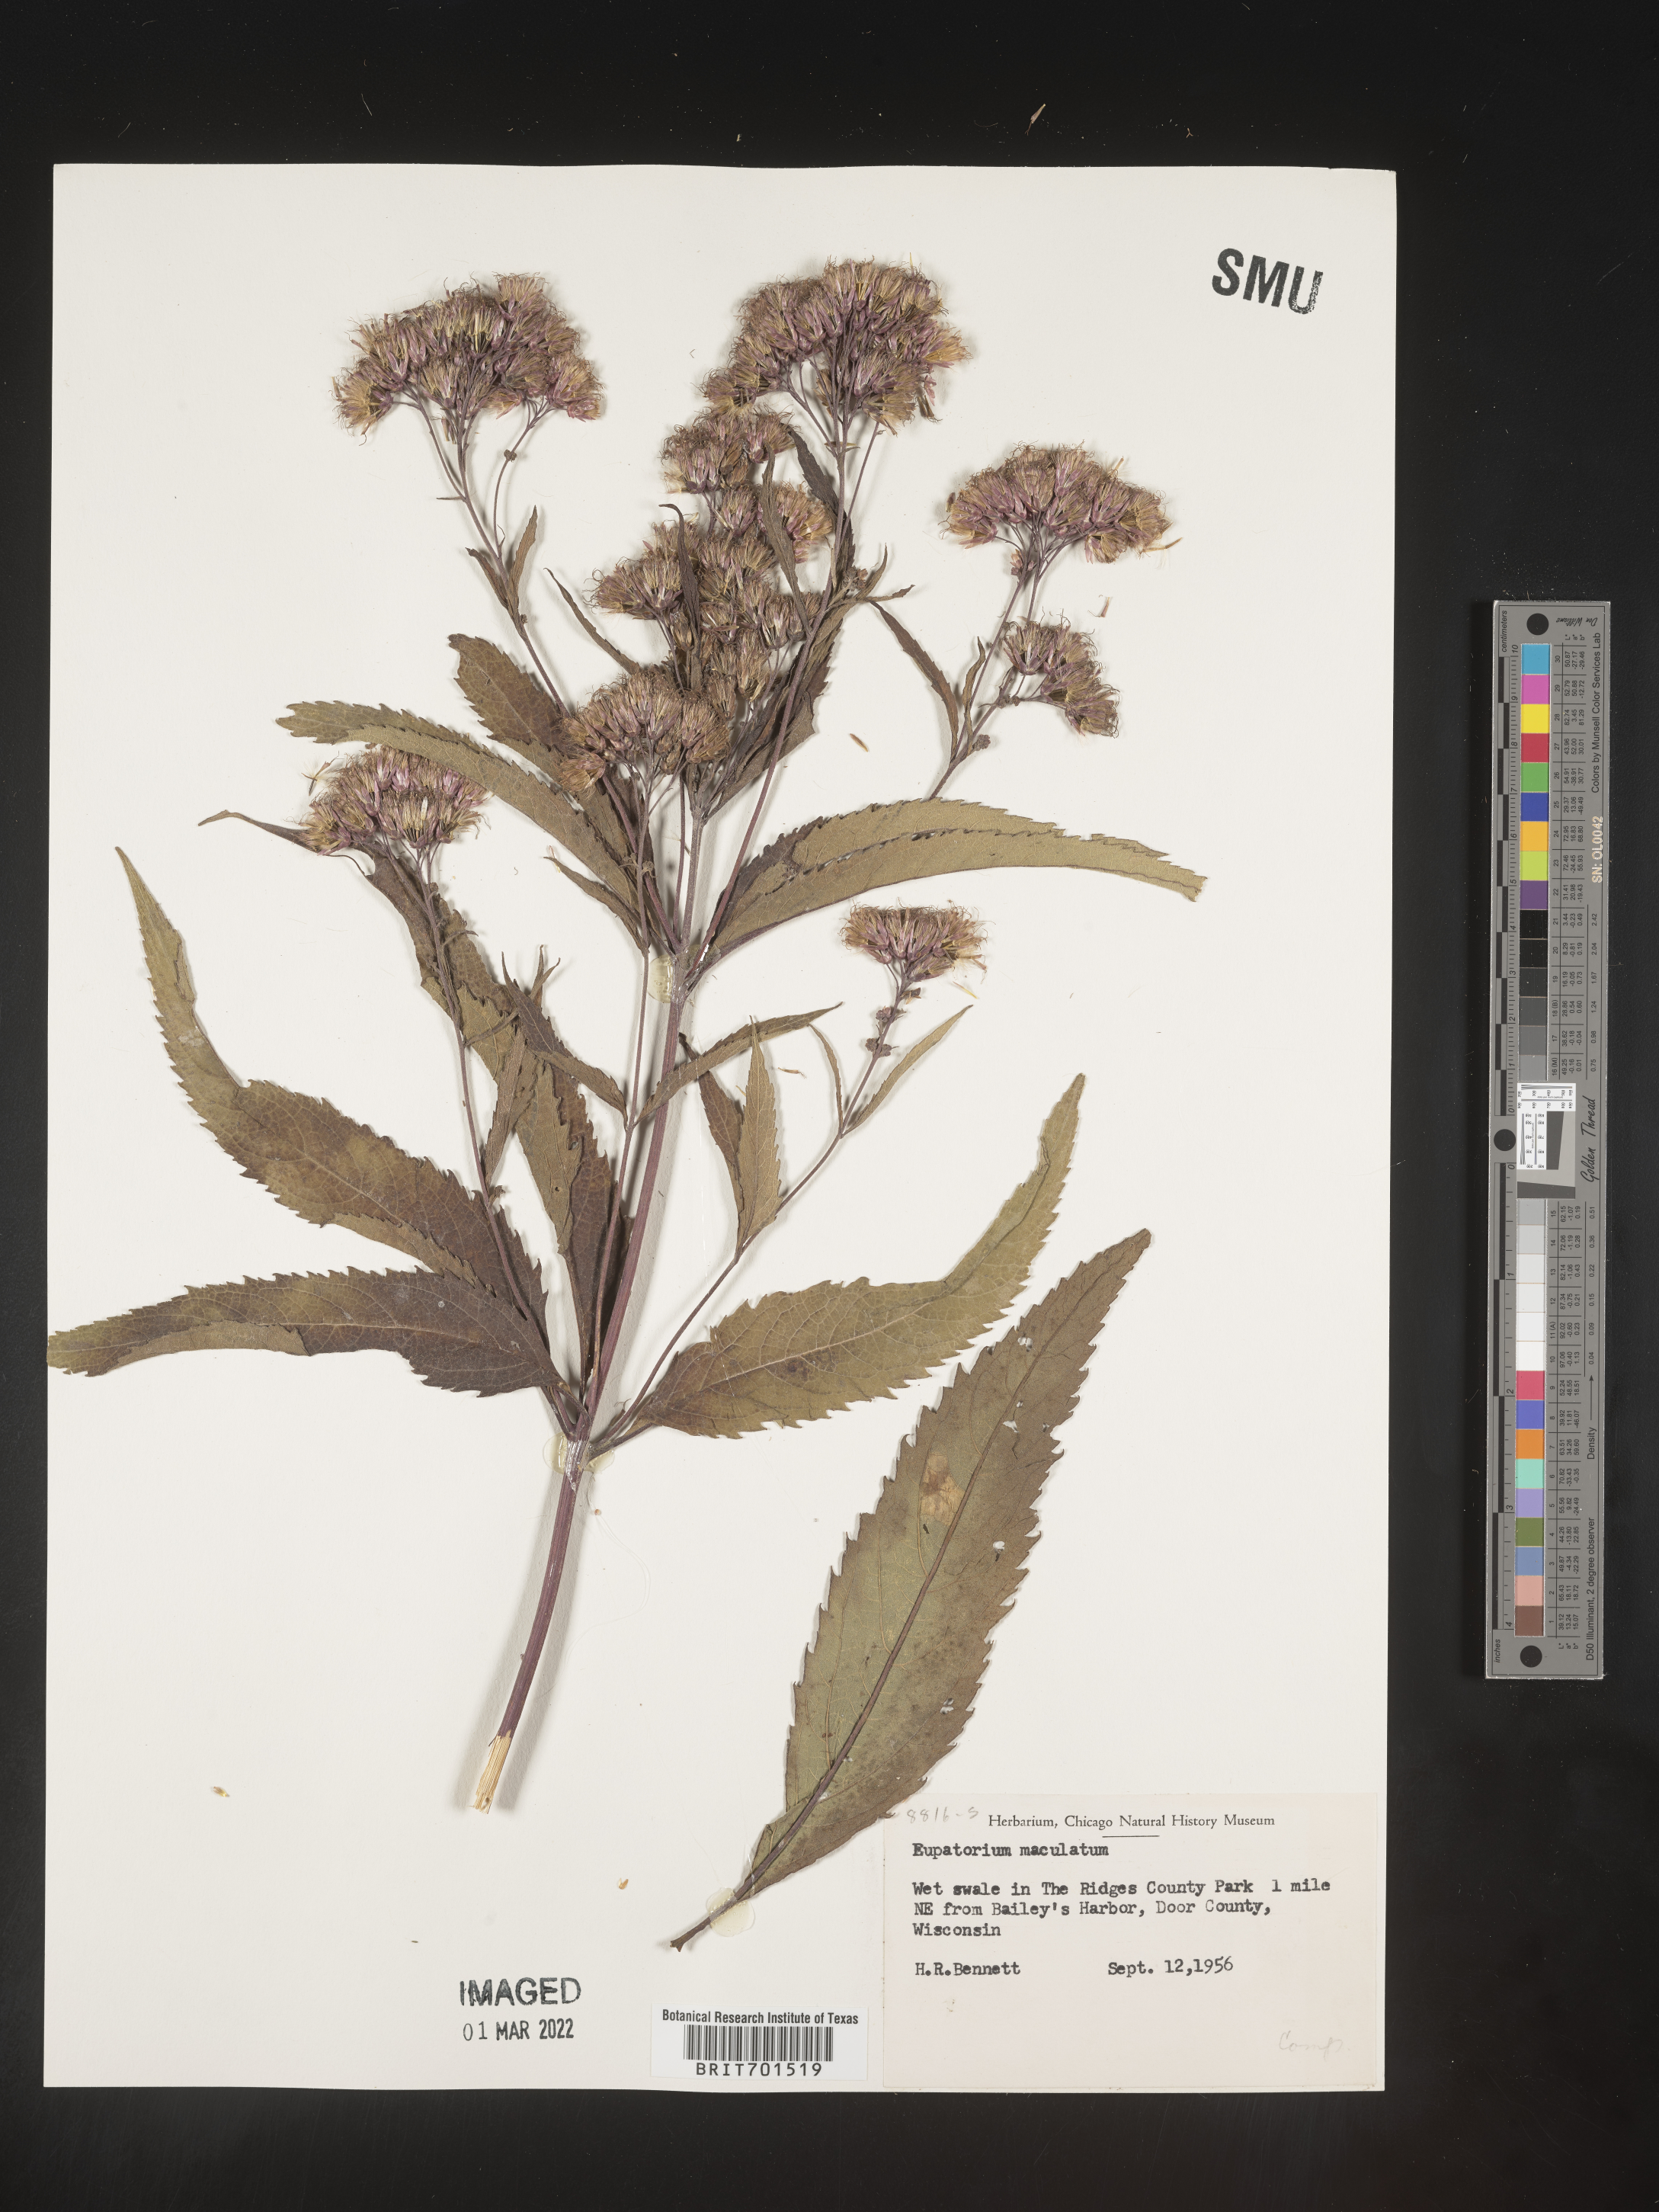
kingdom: Plantae
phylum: Tracheophyta
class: Magnoliopsida
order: Asterales
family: Asteraceae
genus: Eutrochium
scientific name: Eutrochium maculatum
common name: Spotted joe pye weed
